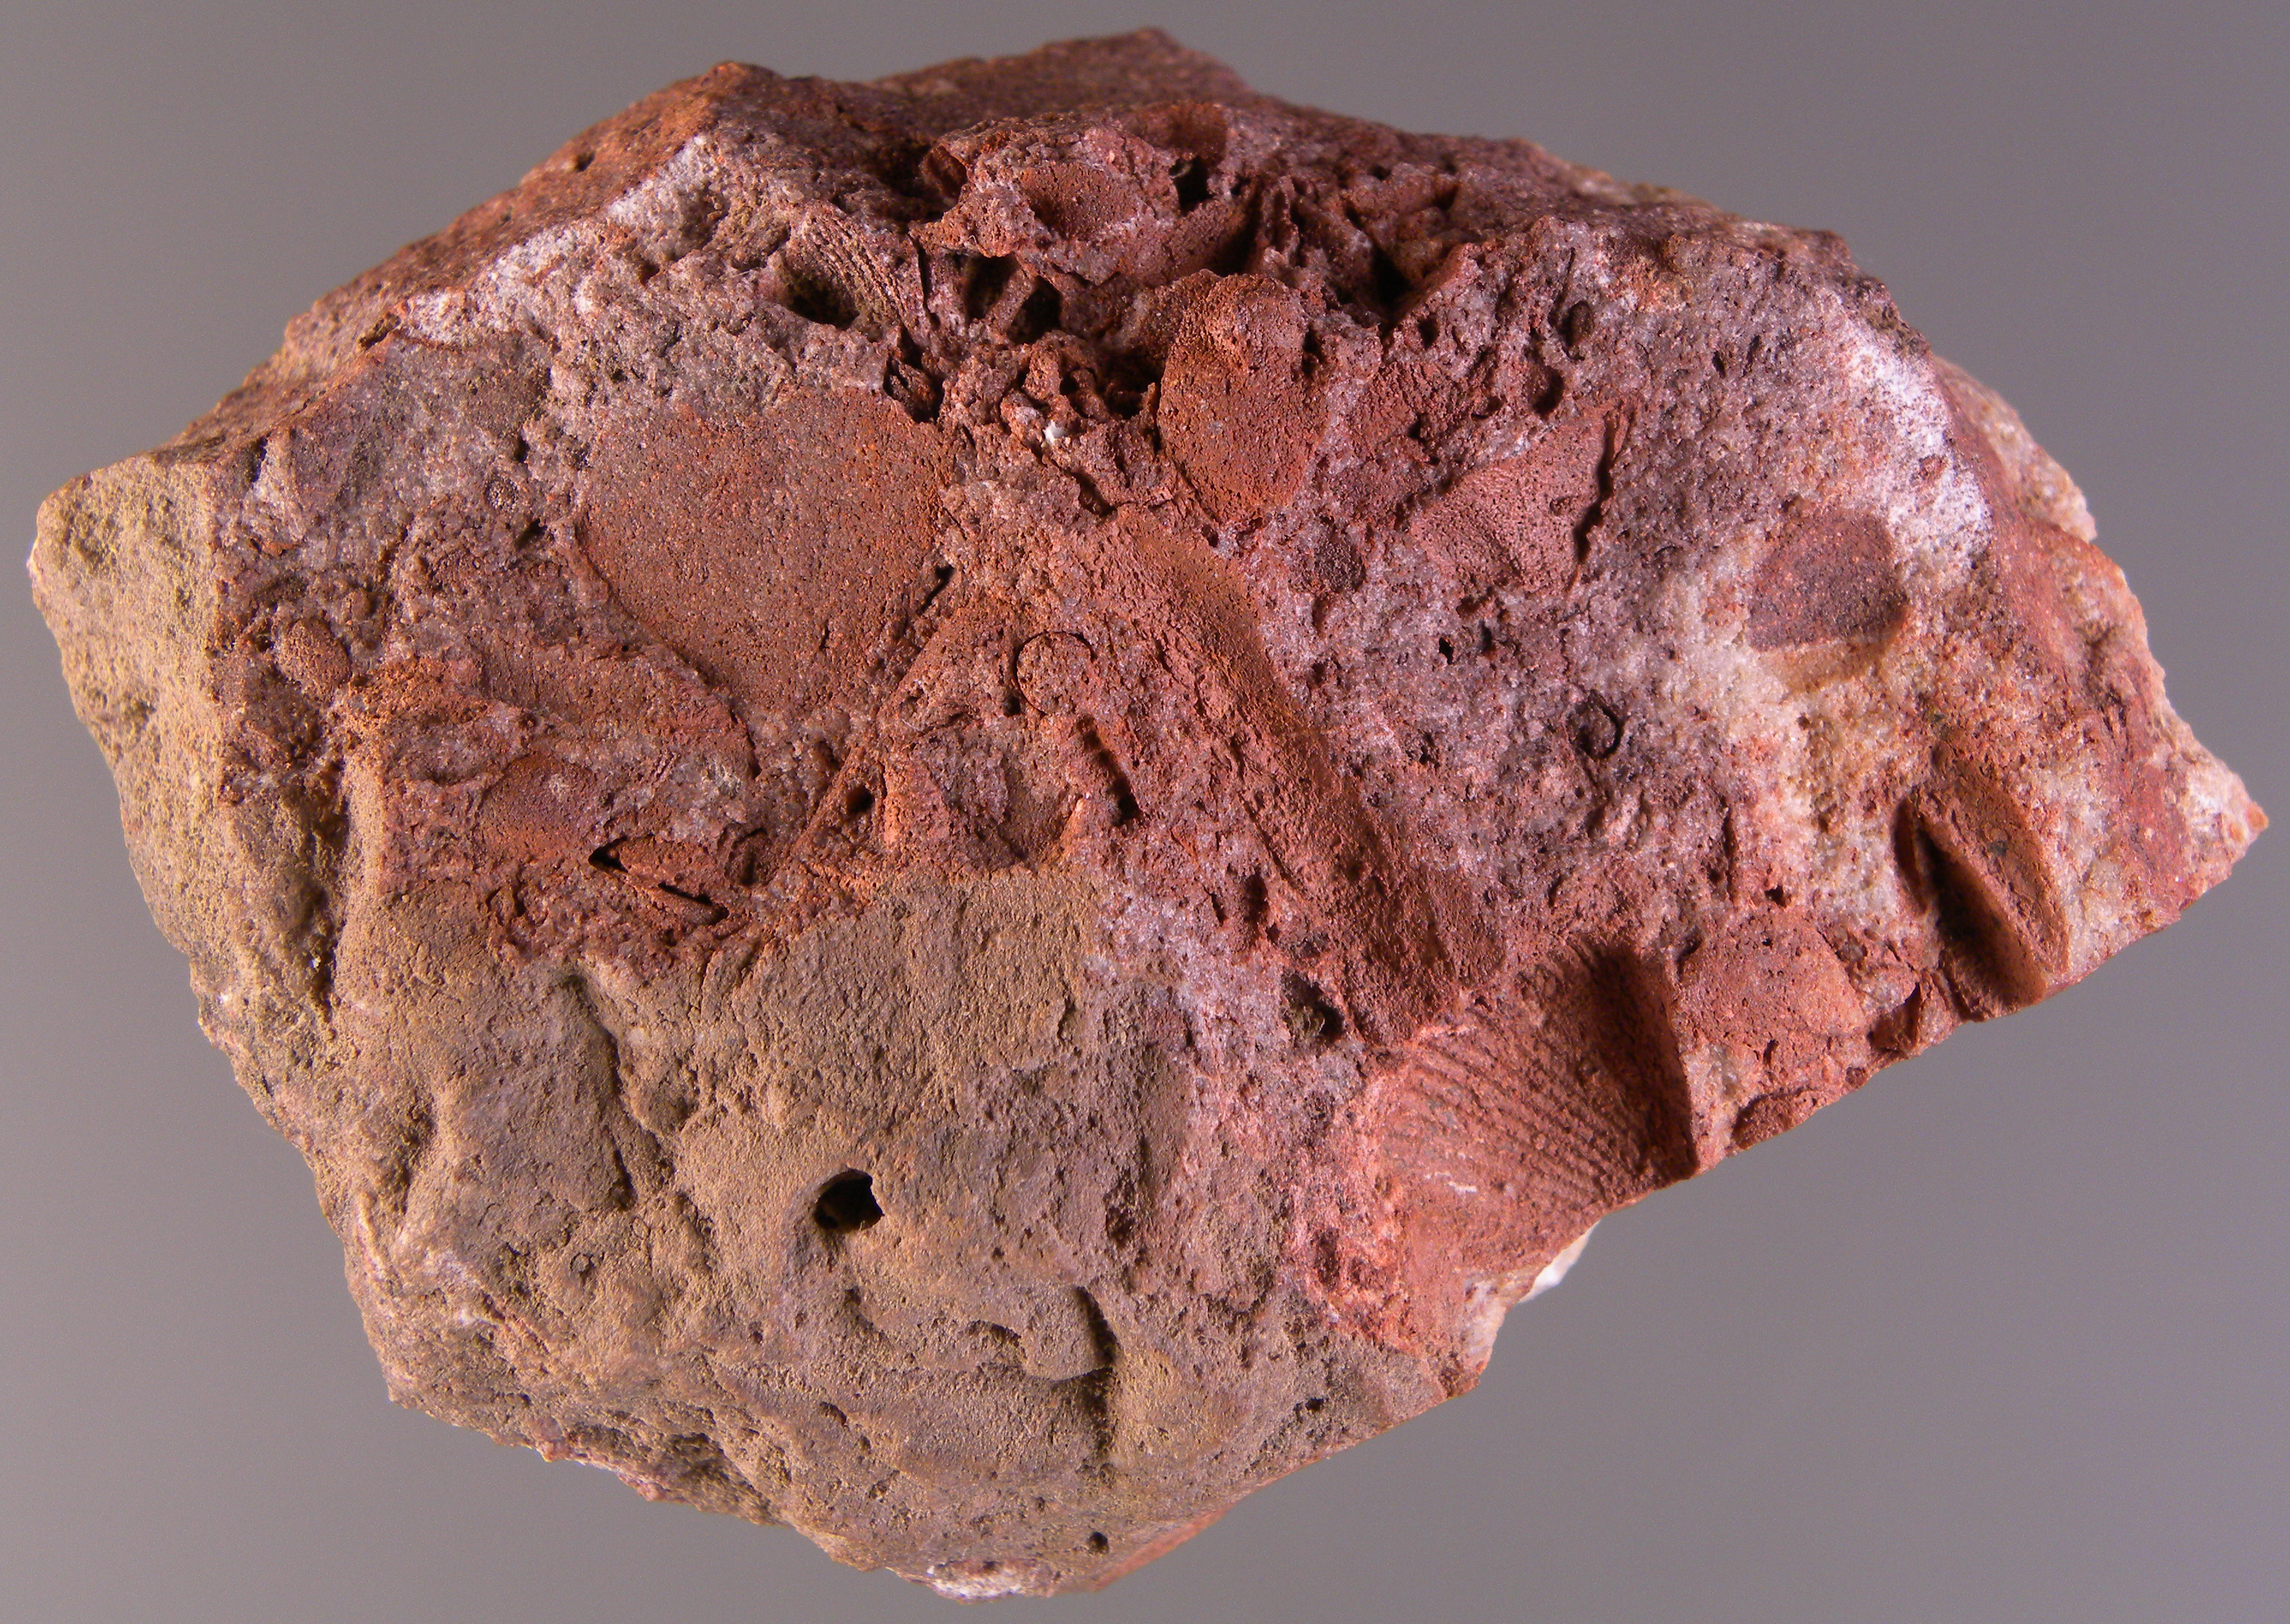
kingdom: Animalia
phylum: Arthropoda
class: Trilobita
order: Phacopida
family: Acastidae
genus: Acastava
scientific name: Acastava
